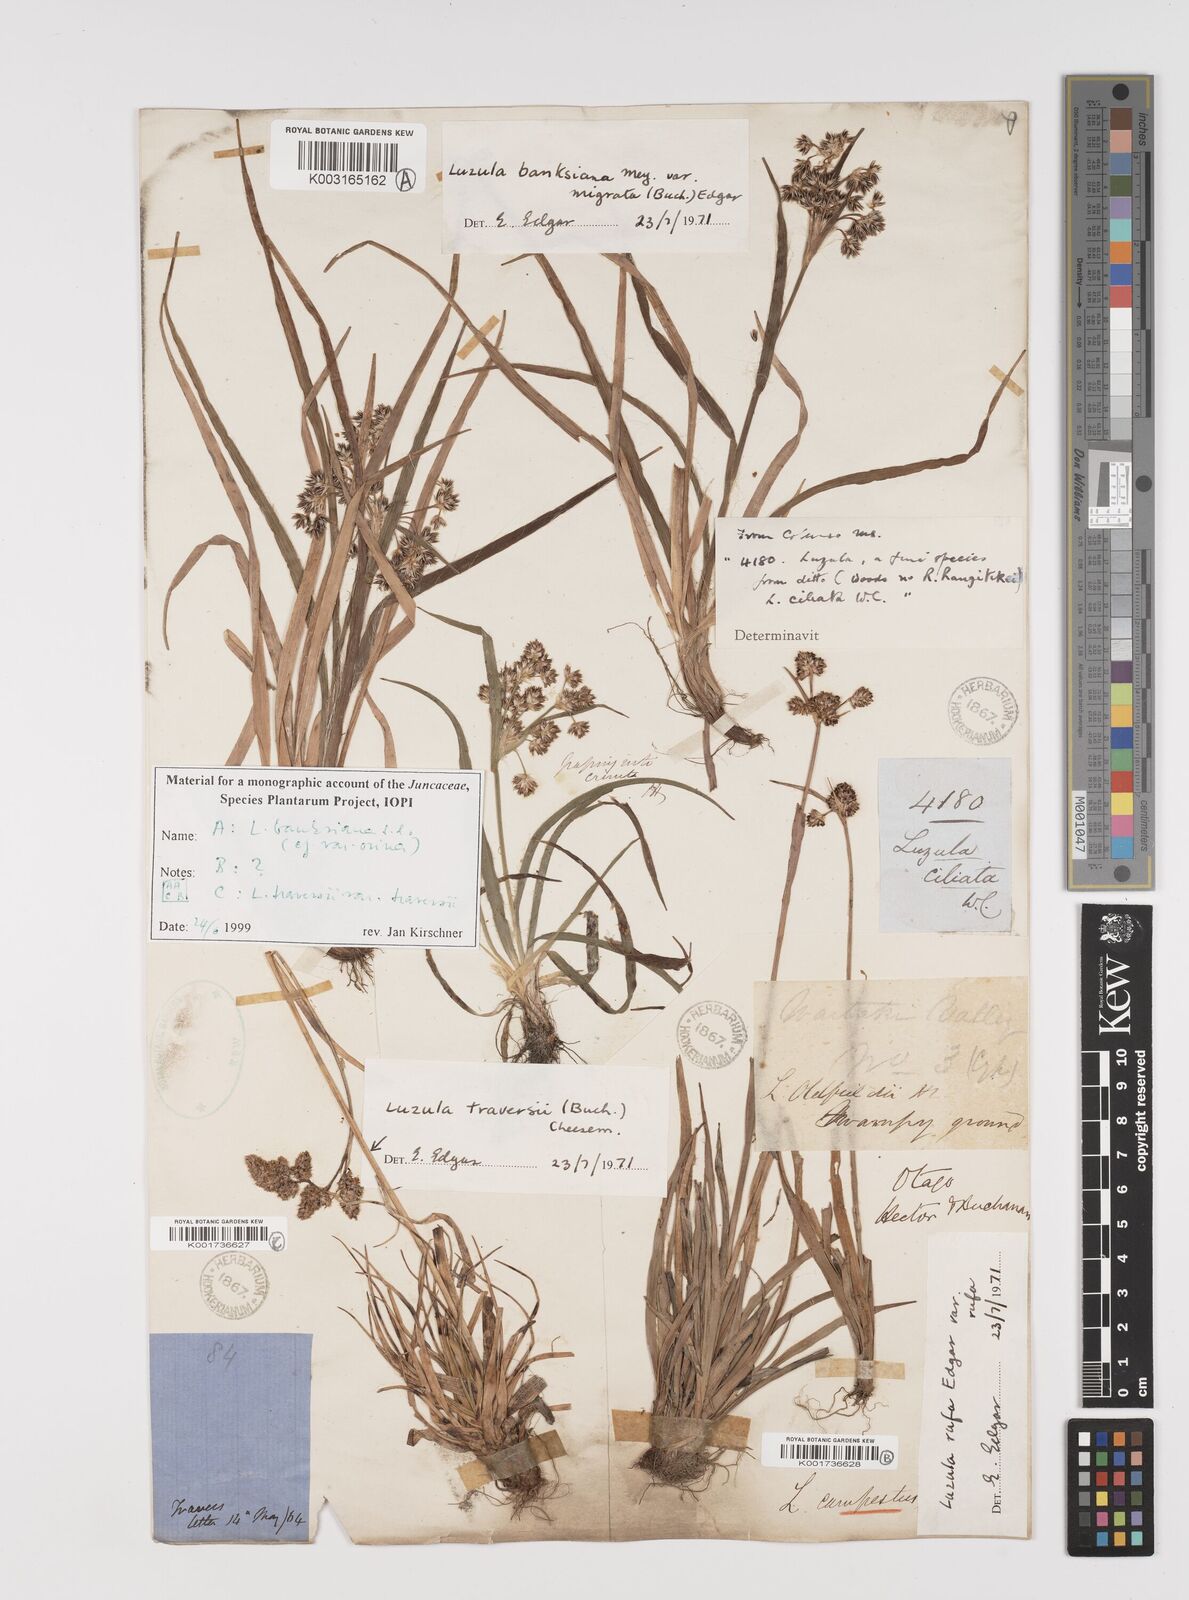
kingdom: Plantae
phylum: Tracheophyta
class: Liliopsida
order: Poales
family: Juncaceae
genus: Luzula
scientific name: Luzula traversii
